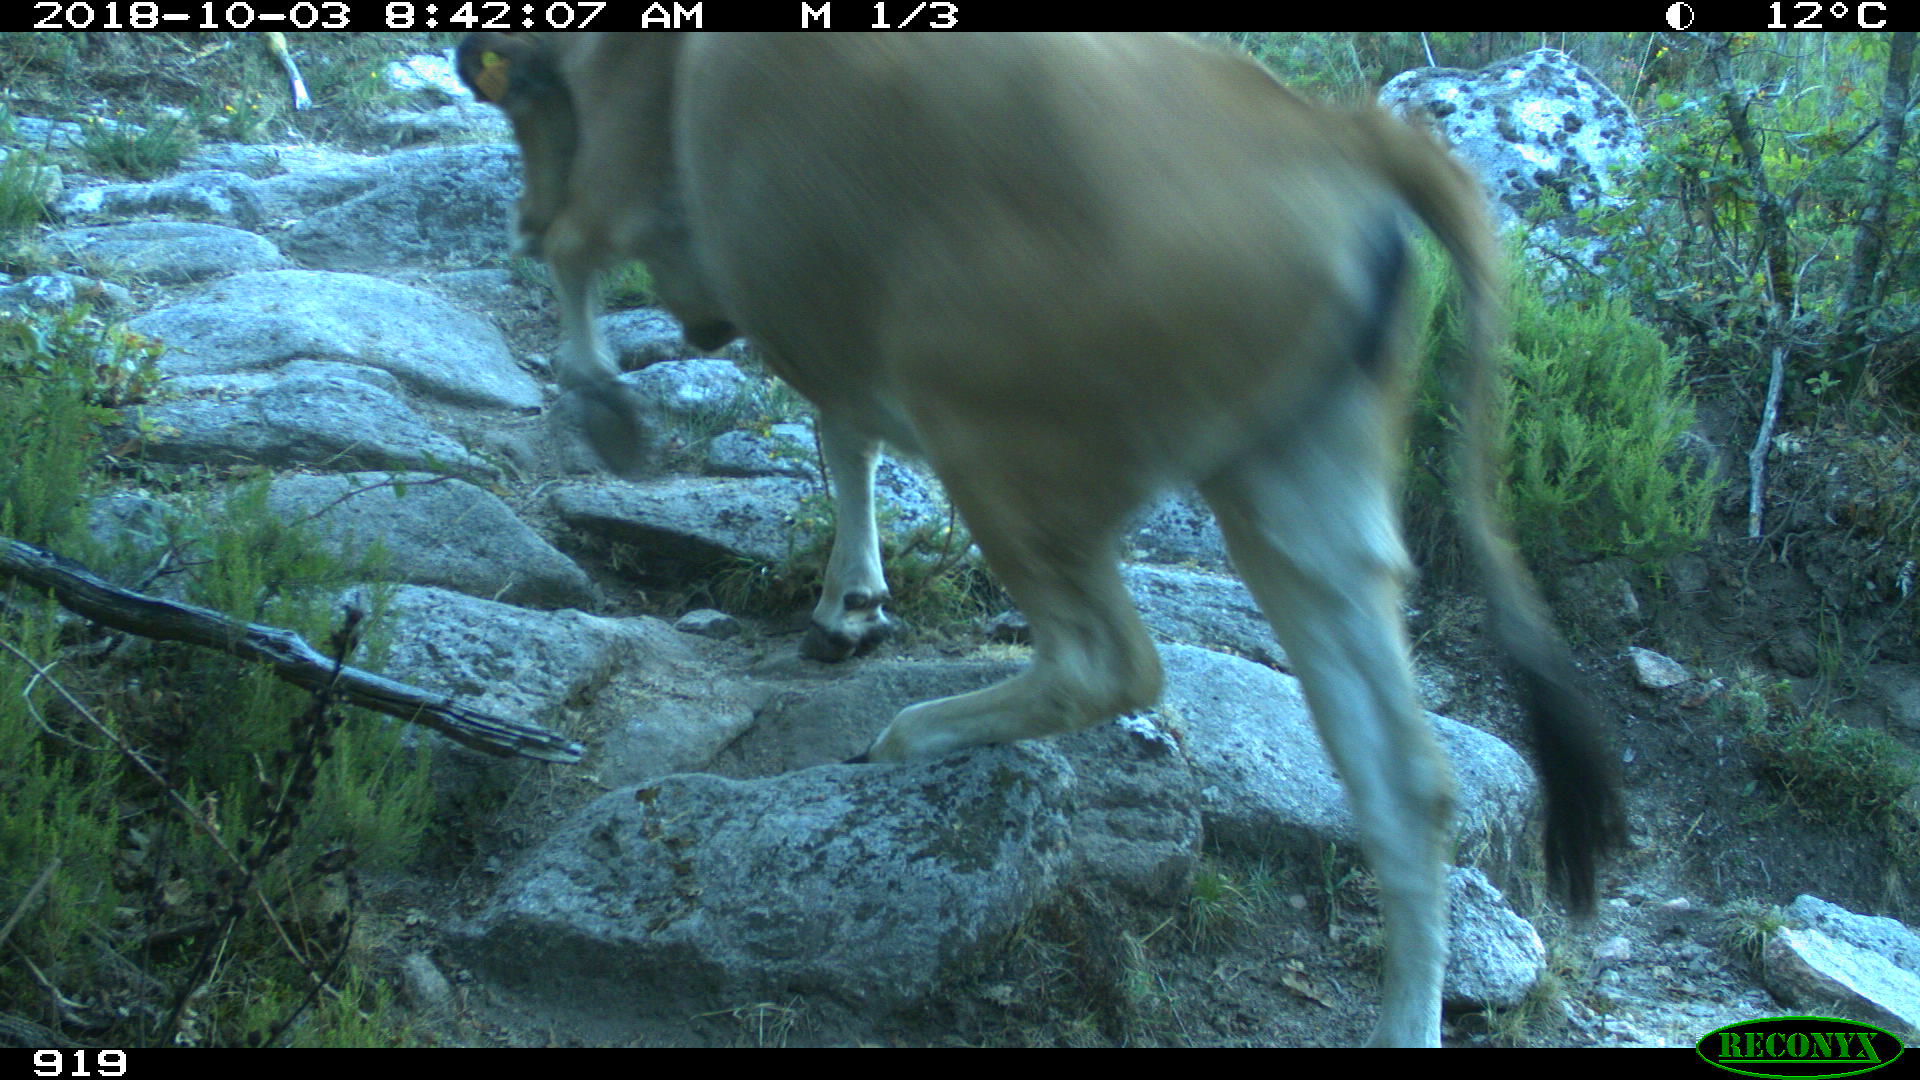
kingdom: Animalia
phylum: Chordata
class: Mammalia
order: Artiodactyla
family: Bovidae
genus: Bos
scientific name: Bos taurus
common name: Domesticated cattle
